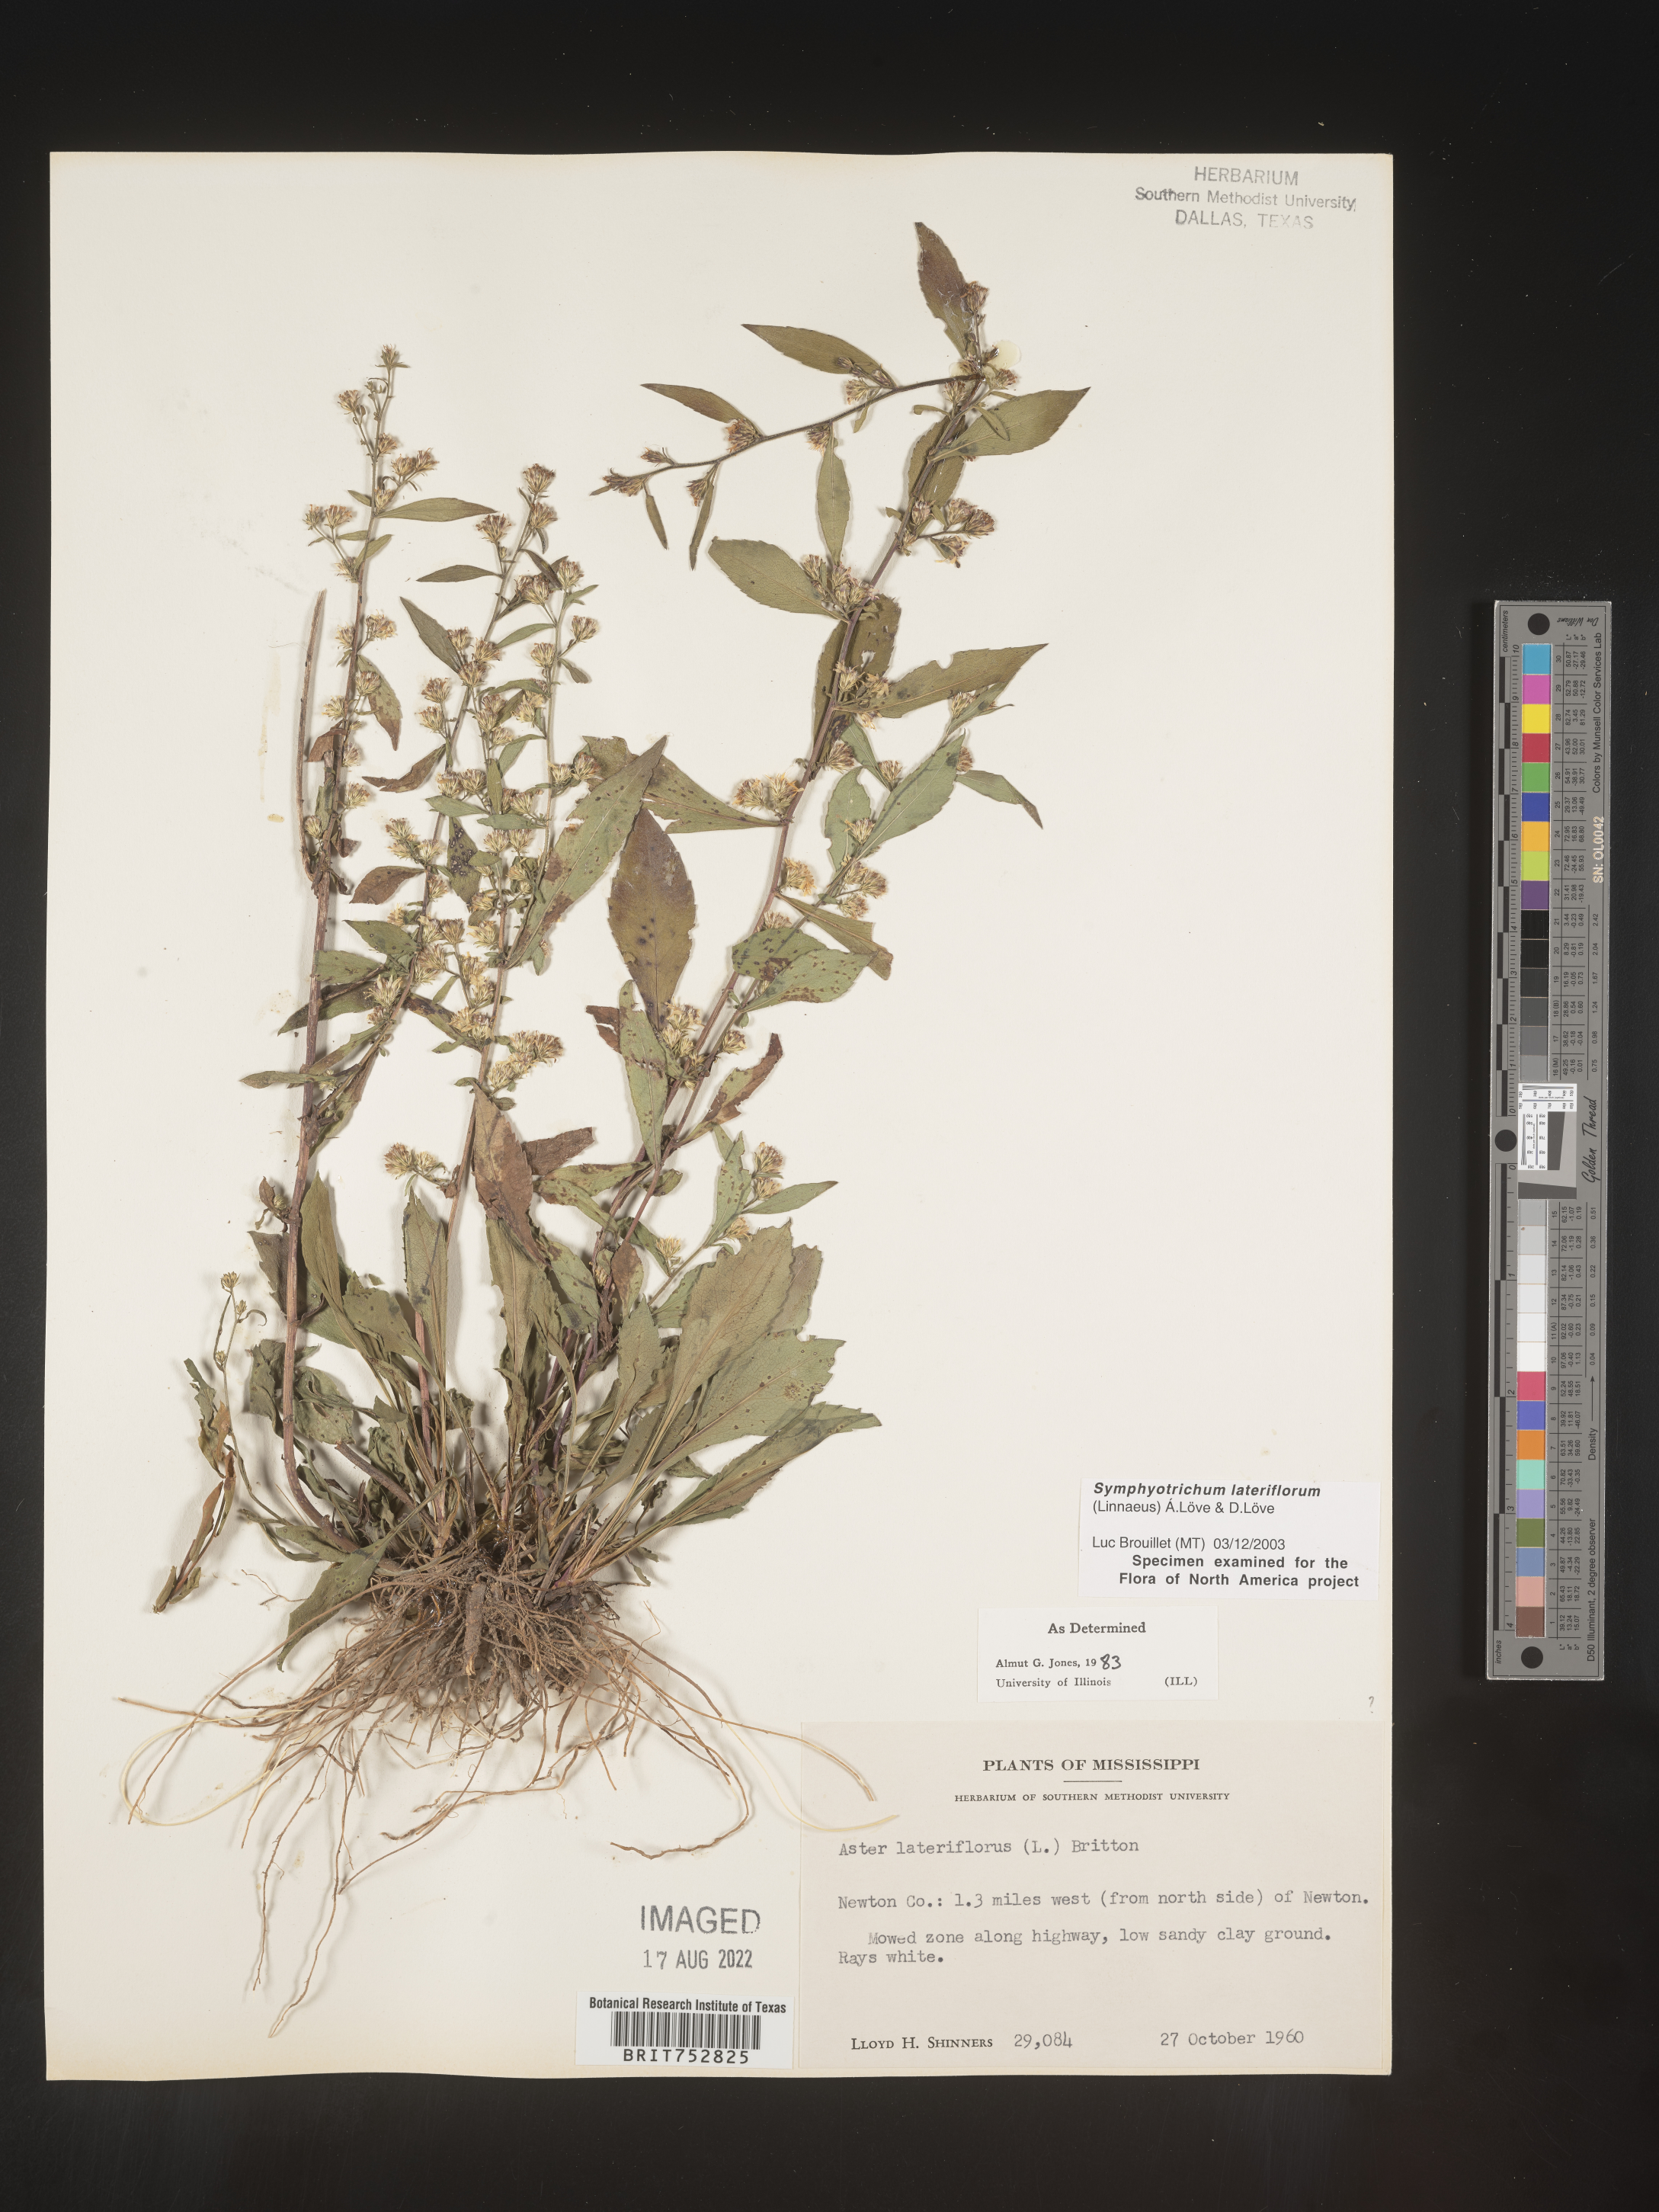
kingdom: Plantae
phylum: Tracheophyta
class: Magnoliopsida
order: Asterales
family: Asteraceae
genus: Symphyotrichum
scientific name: Symphyotrichum lateriflorum
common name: Calico aster
